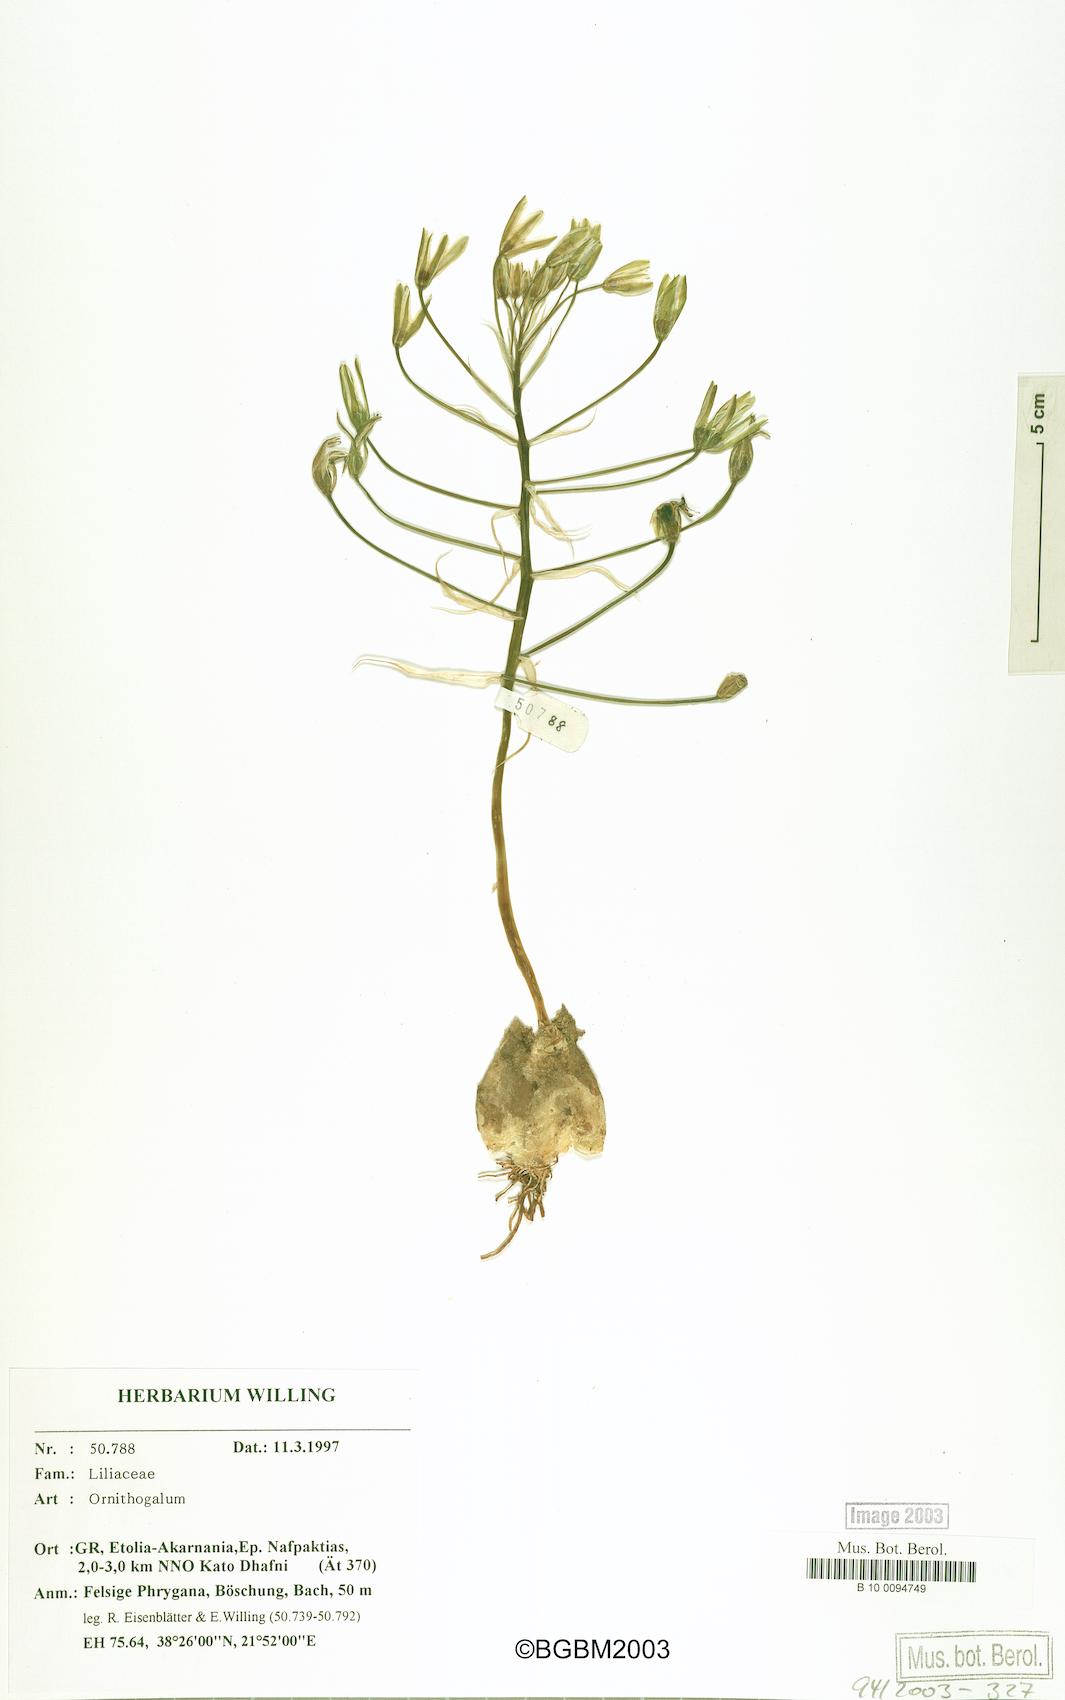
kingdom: Plantae
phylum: Tracheophyta
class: Liliopsida
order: Asparagales
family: Asparagaceae
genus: Ornithogalum
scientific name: Ornithogalum
